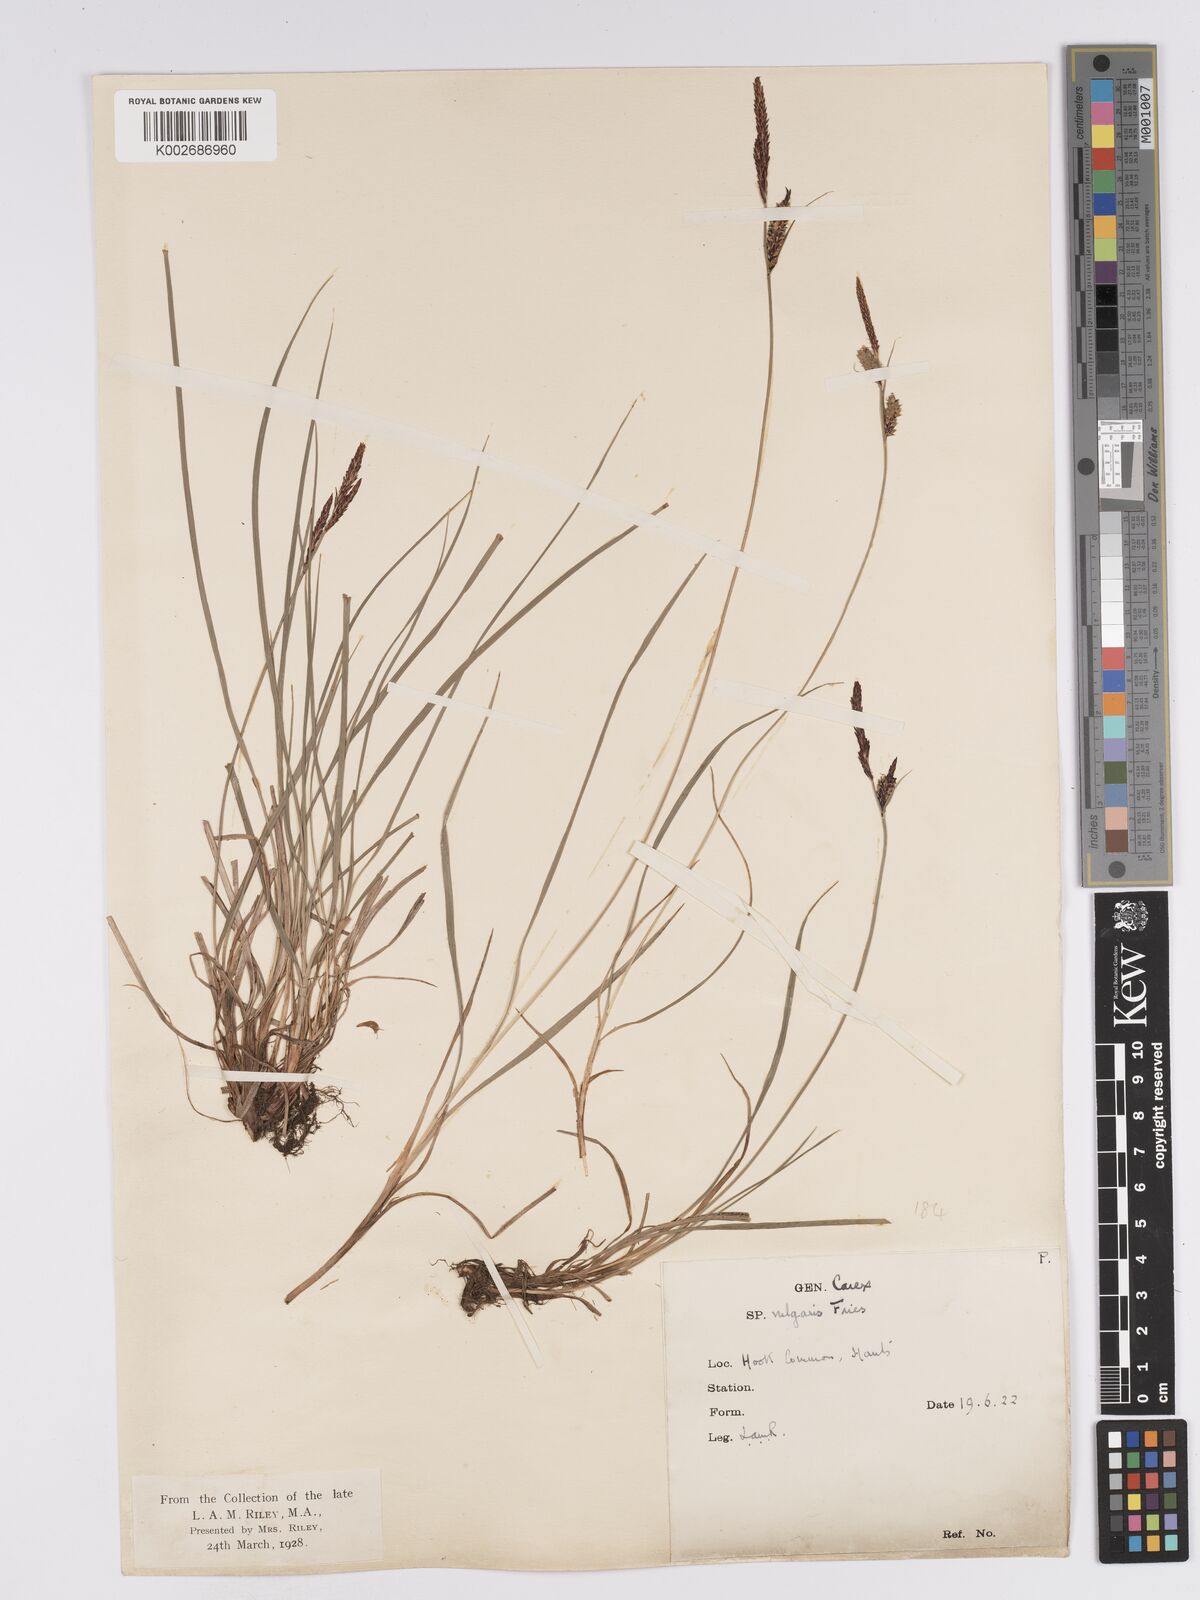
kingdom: Plantae
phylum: Tracheophyta
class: Liliopsida
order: Poales
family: Cyperaceae
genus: Carex
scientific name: Carex nigra
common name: Common sedge
